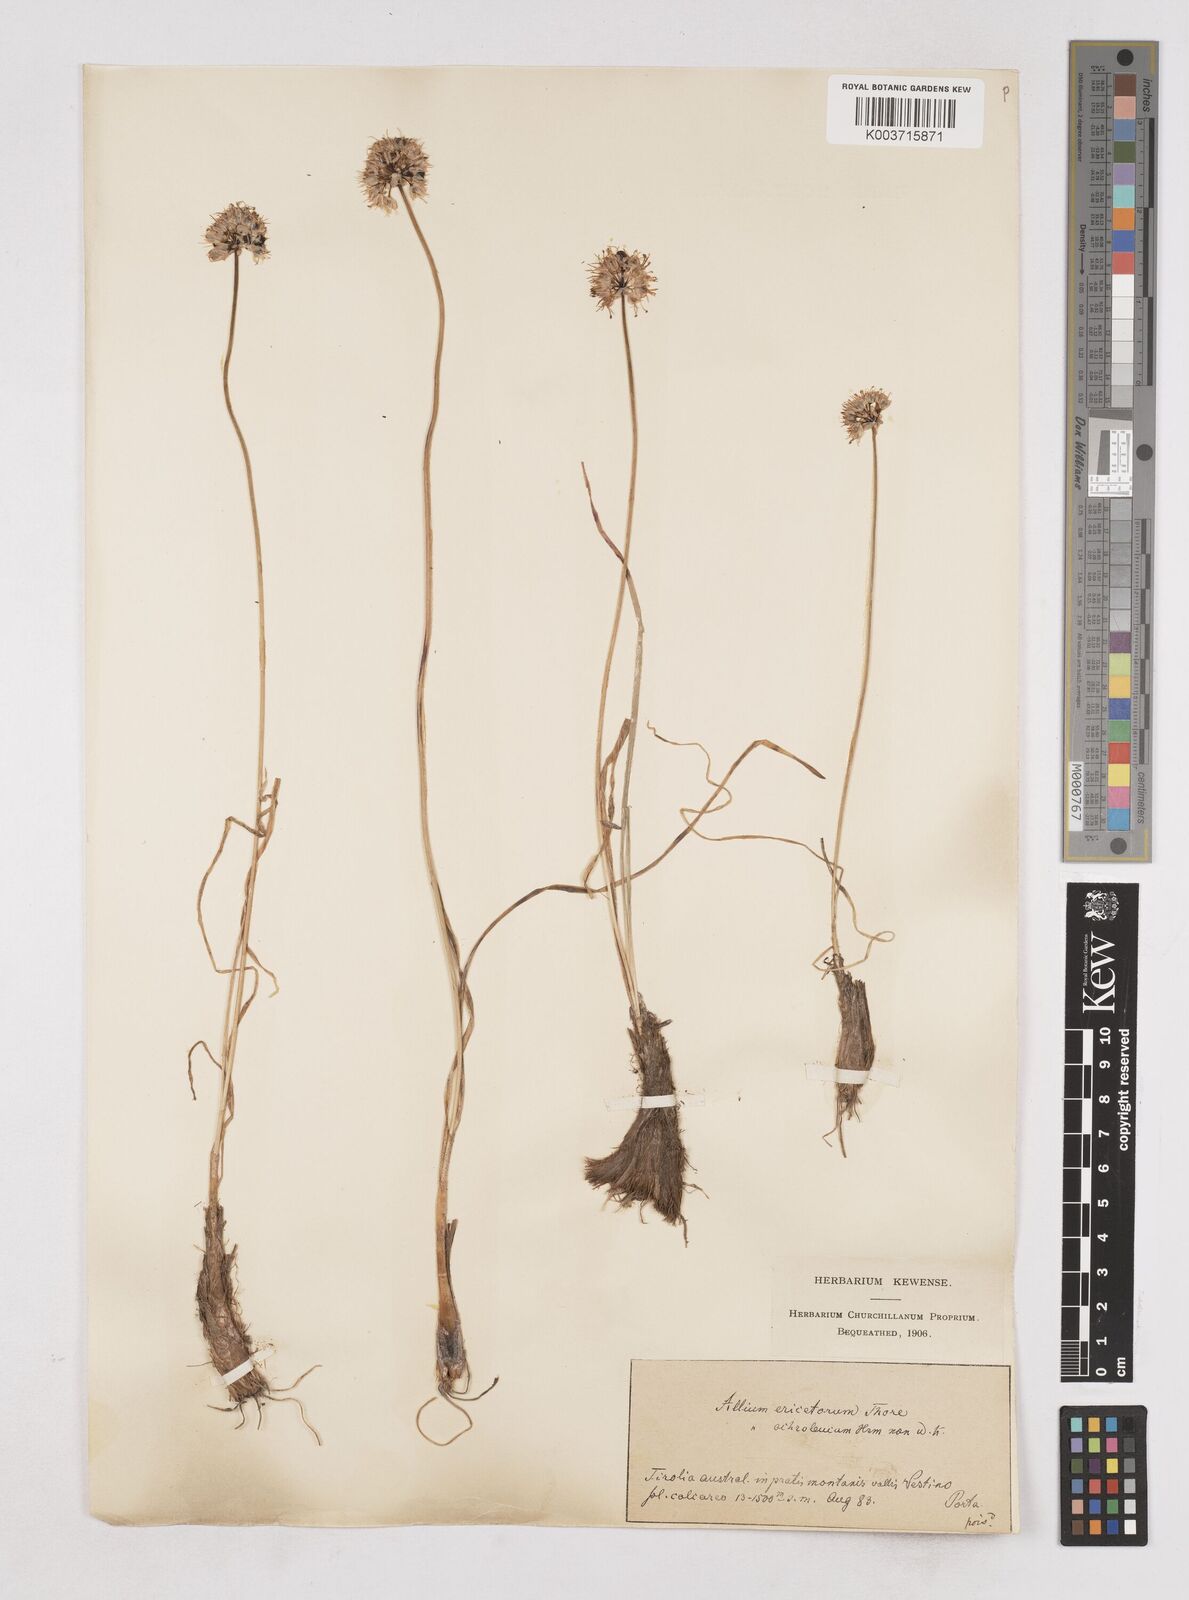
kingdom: Plantae
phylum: Tracheophyta
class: Liliopsida
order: Asparagales
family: Amaryllidaceae
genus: Allium
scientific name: Allium ericetorum
